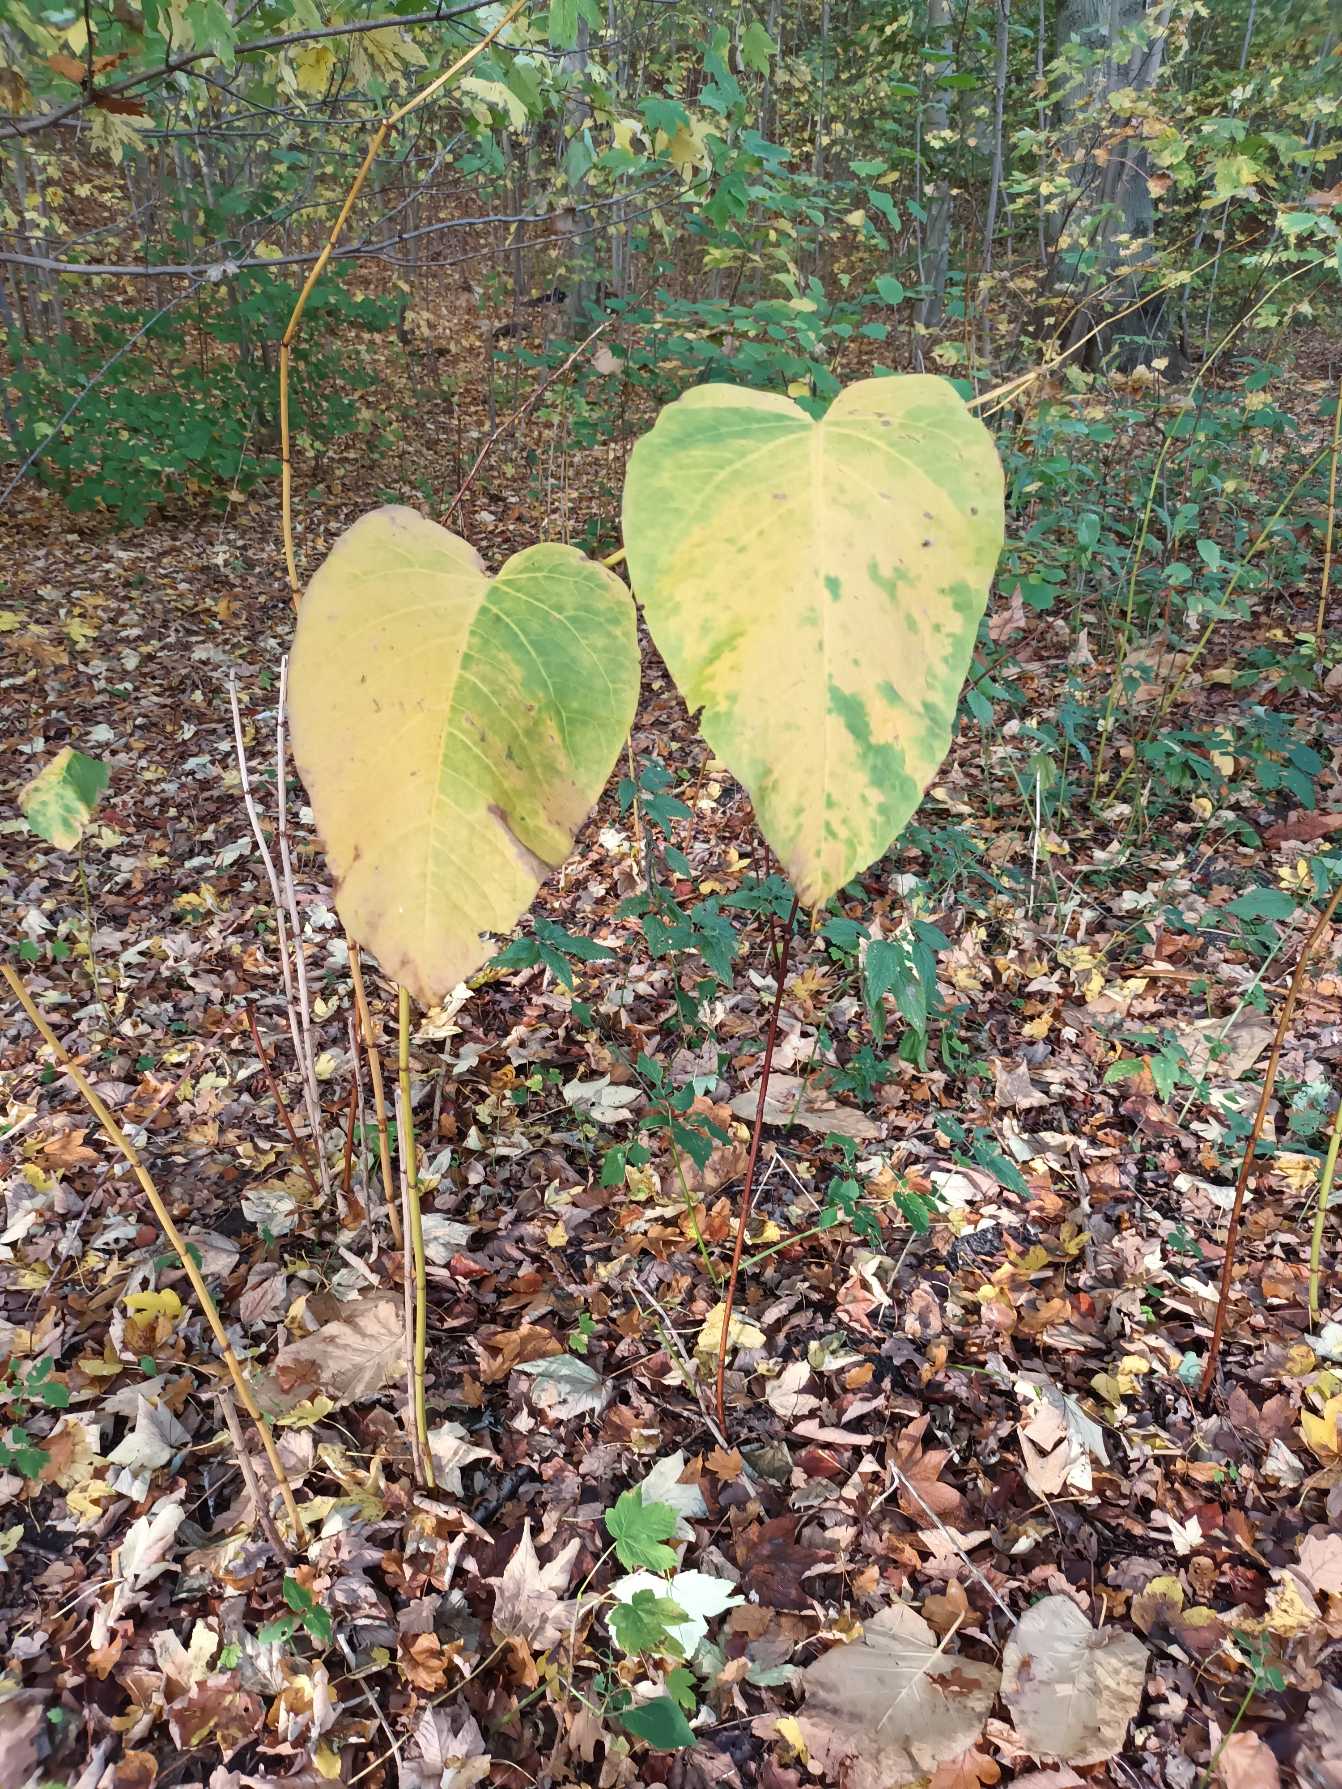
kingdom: Plantae
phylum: Tracheophyta
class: Magnoliopsida
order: Caryophyllales
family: Polygonaceae
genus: Reynoutria
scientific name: Reynoutria sachalinensis
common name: Kæmpe-pileurt
